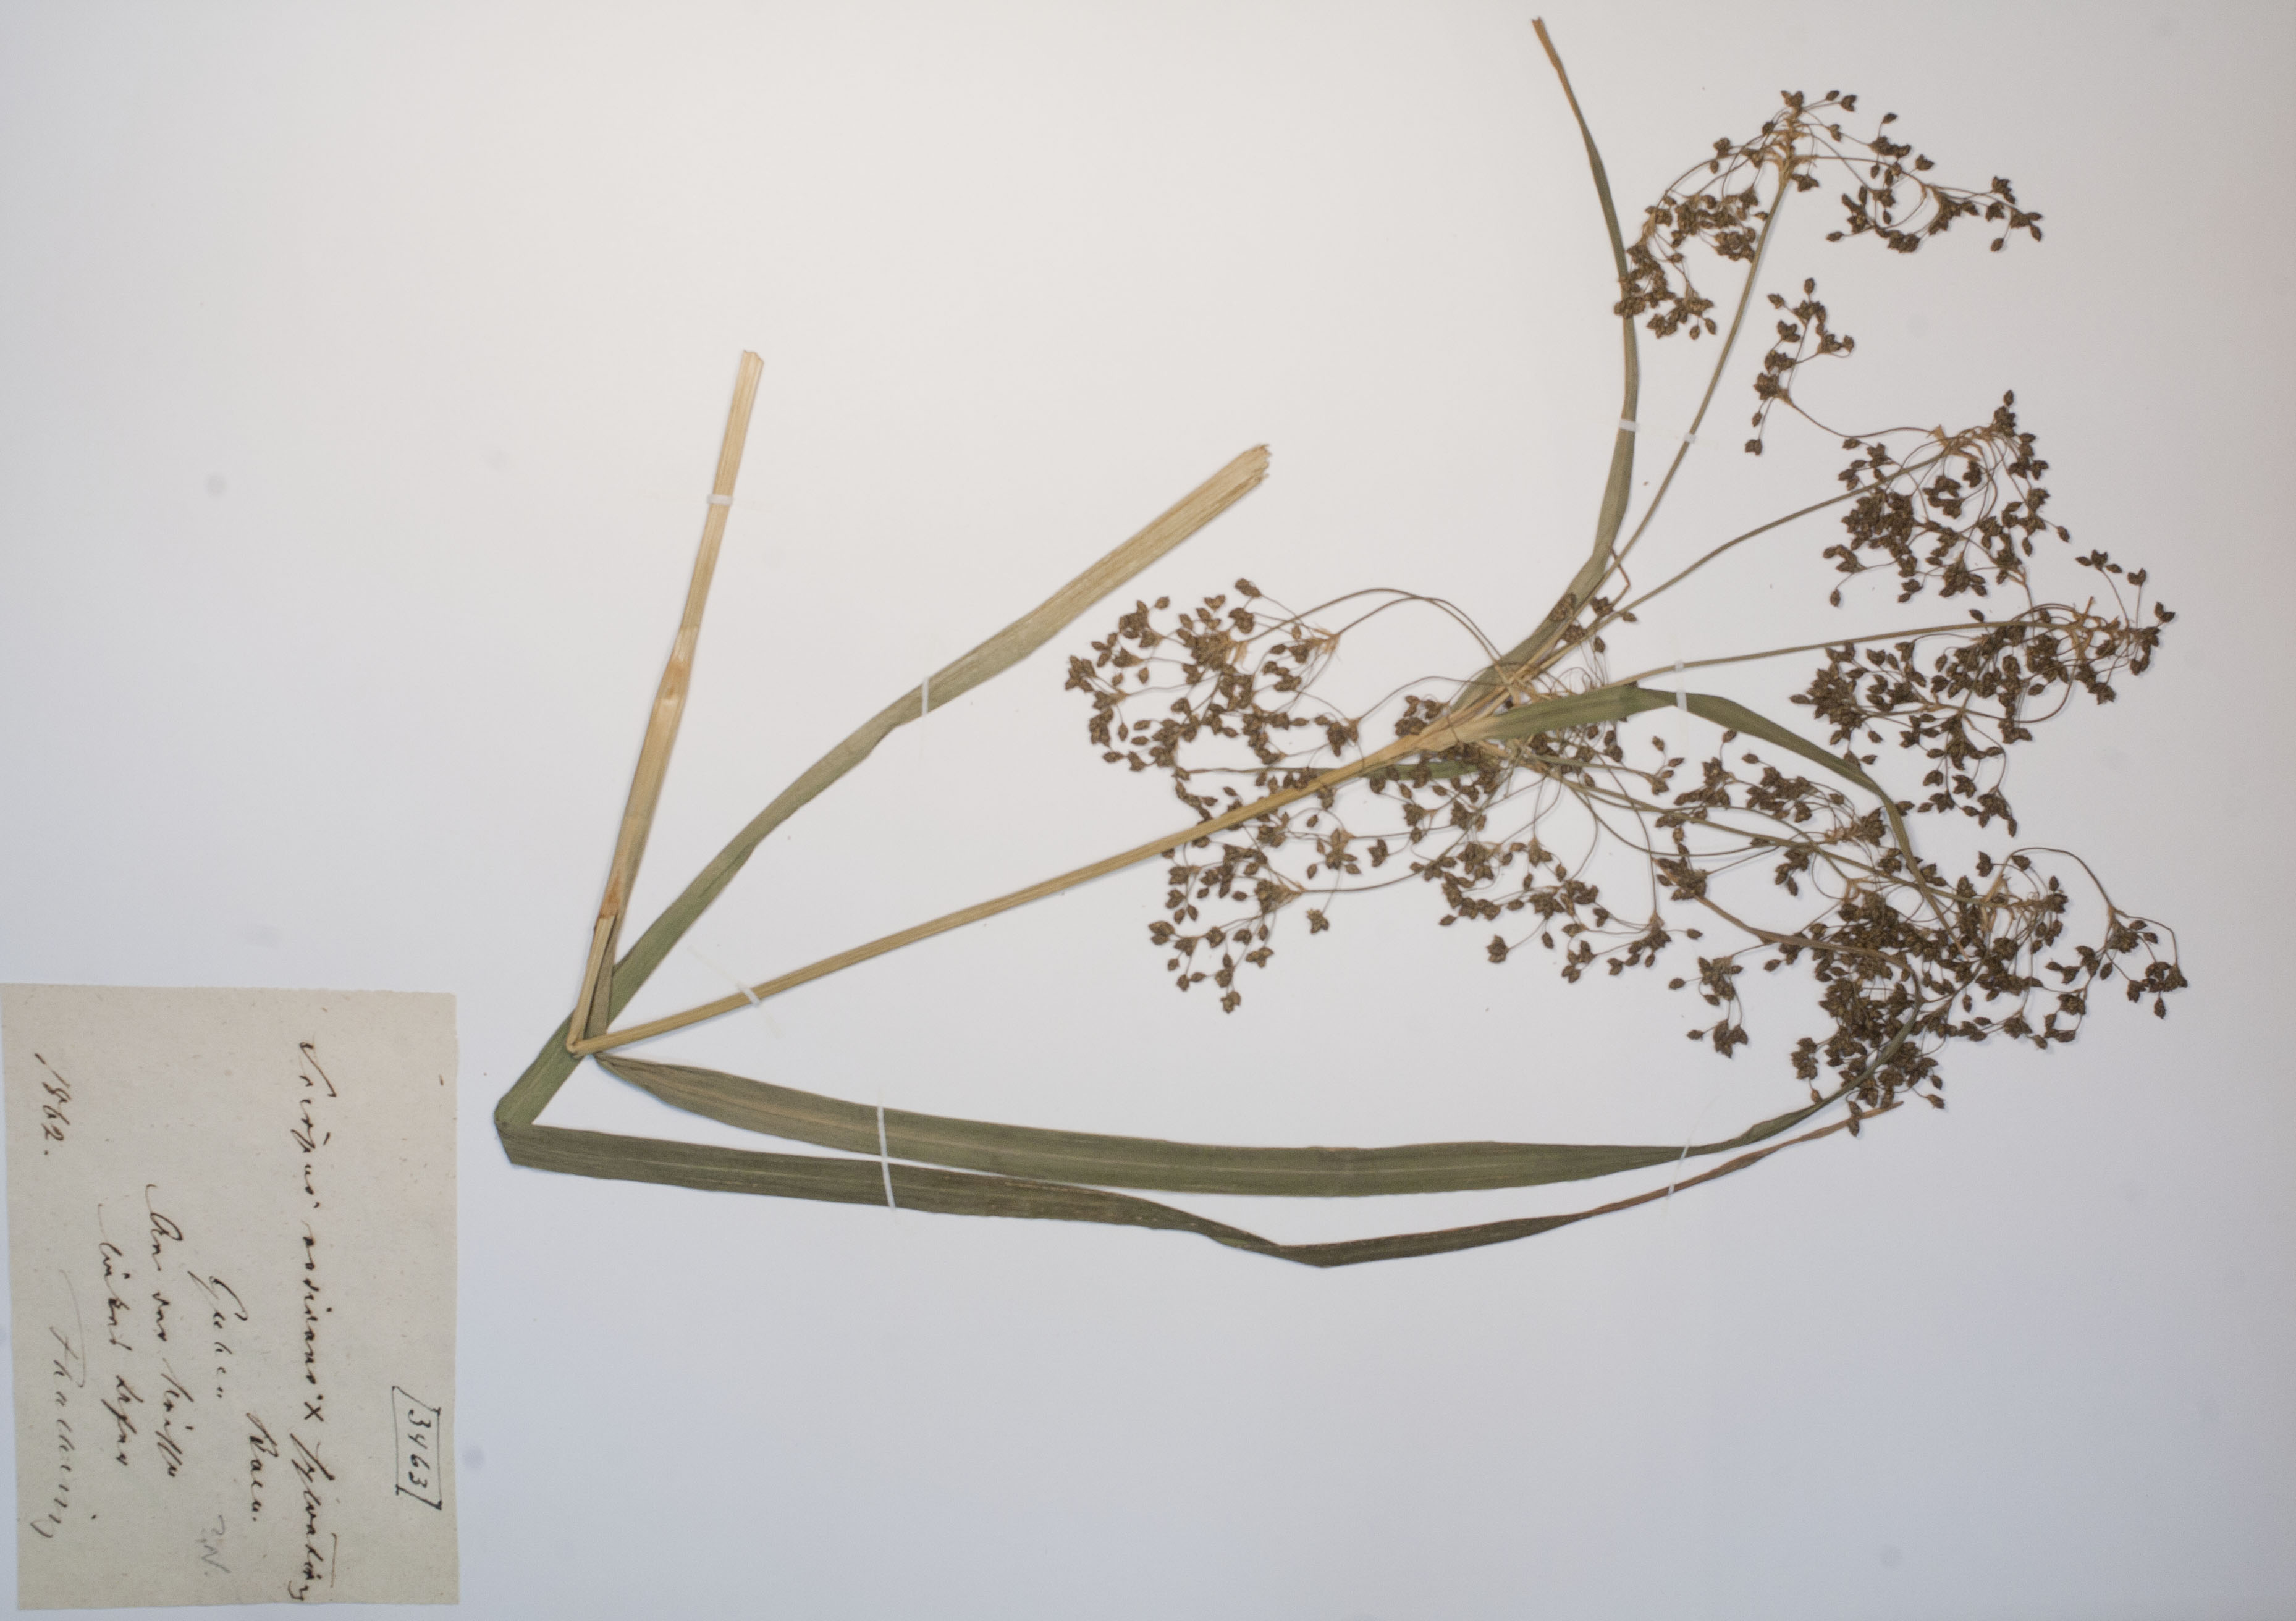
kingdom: Plantae
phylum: Tracheophyta
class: Liliopsida
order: Poales
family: Cyperaceae
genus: Scirpus
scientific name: Scirpus celakovskyanus
